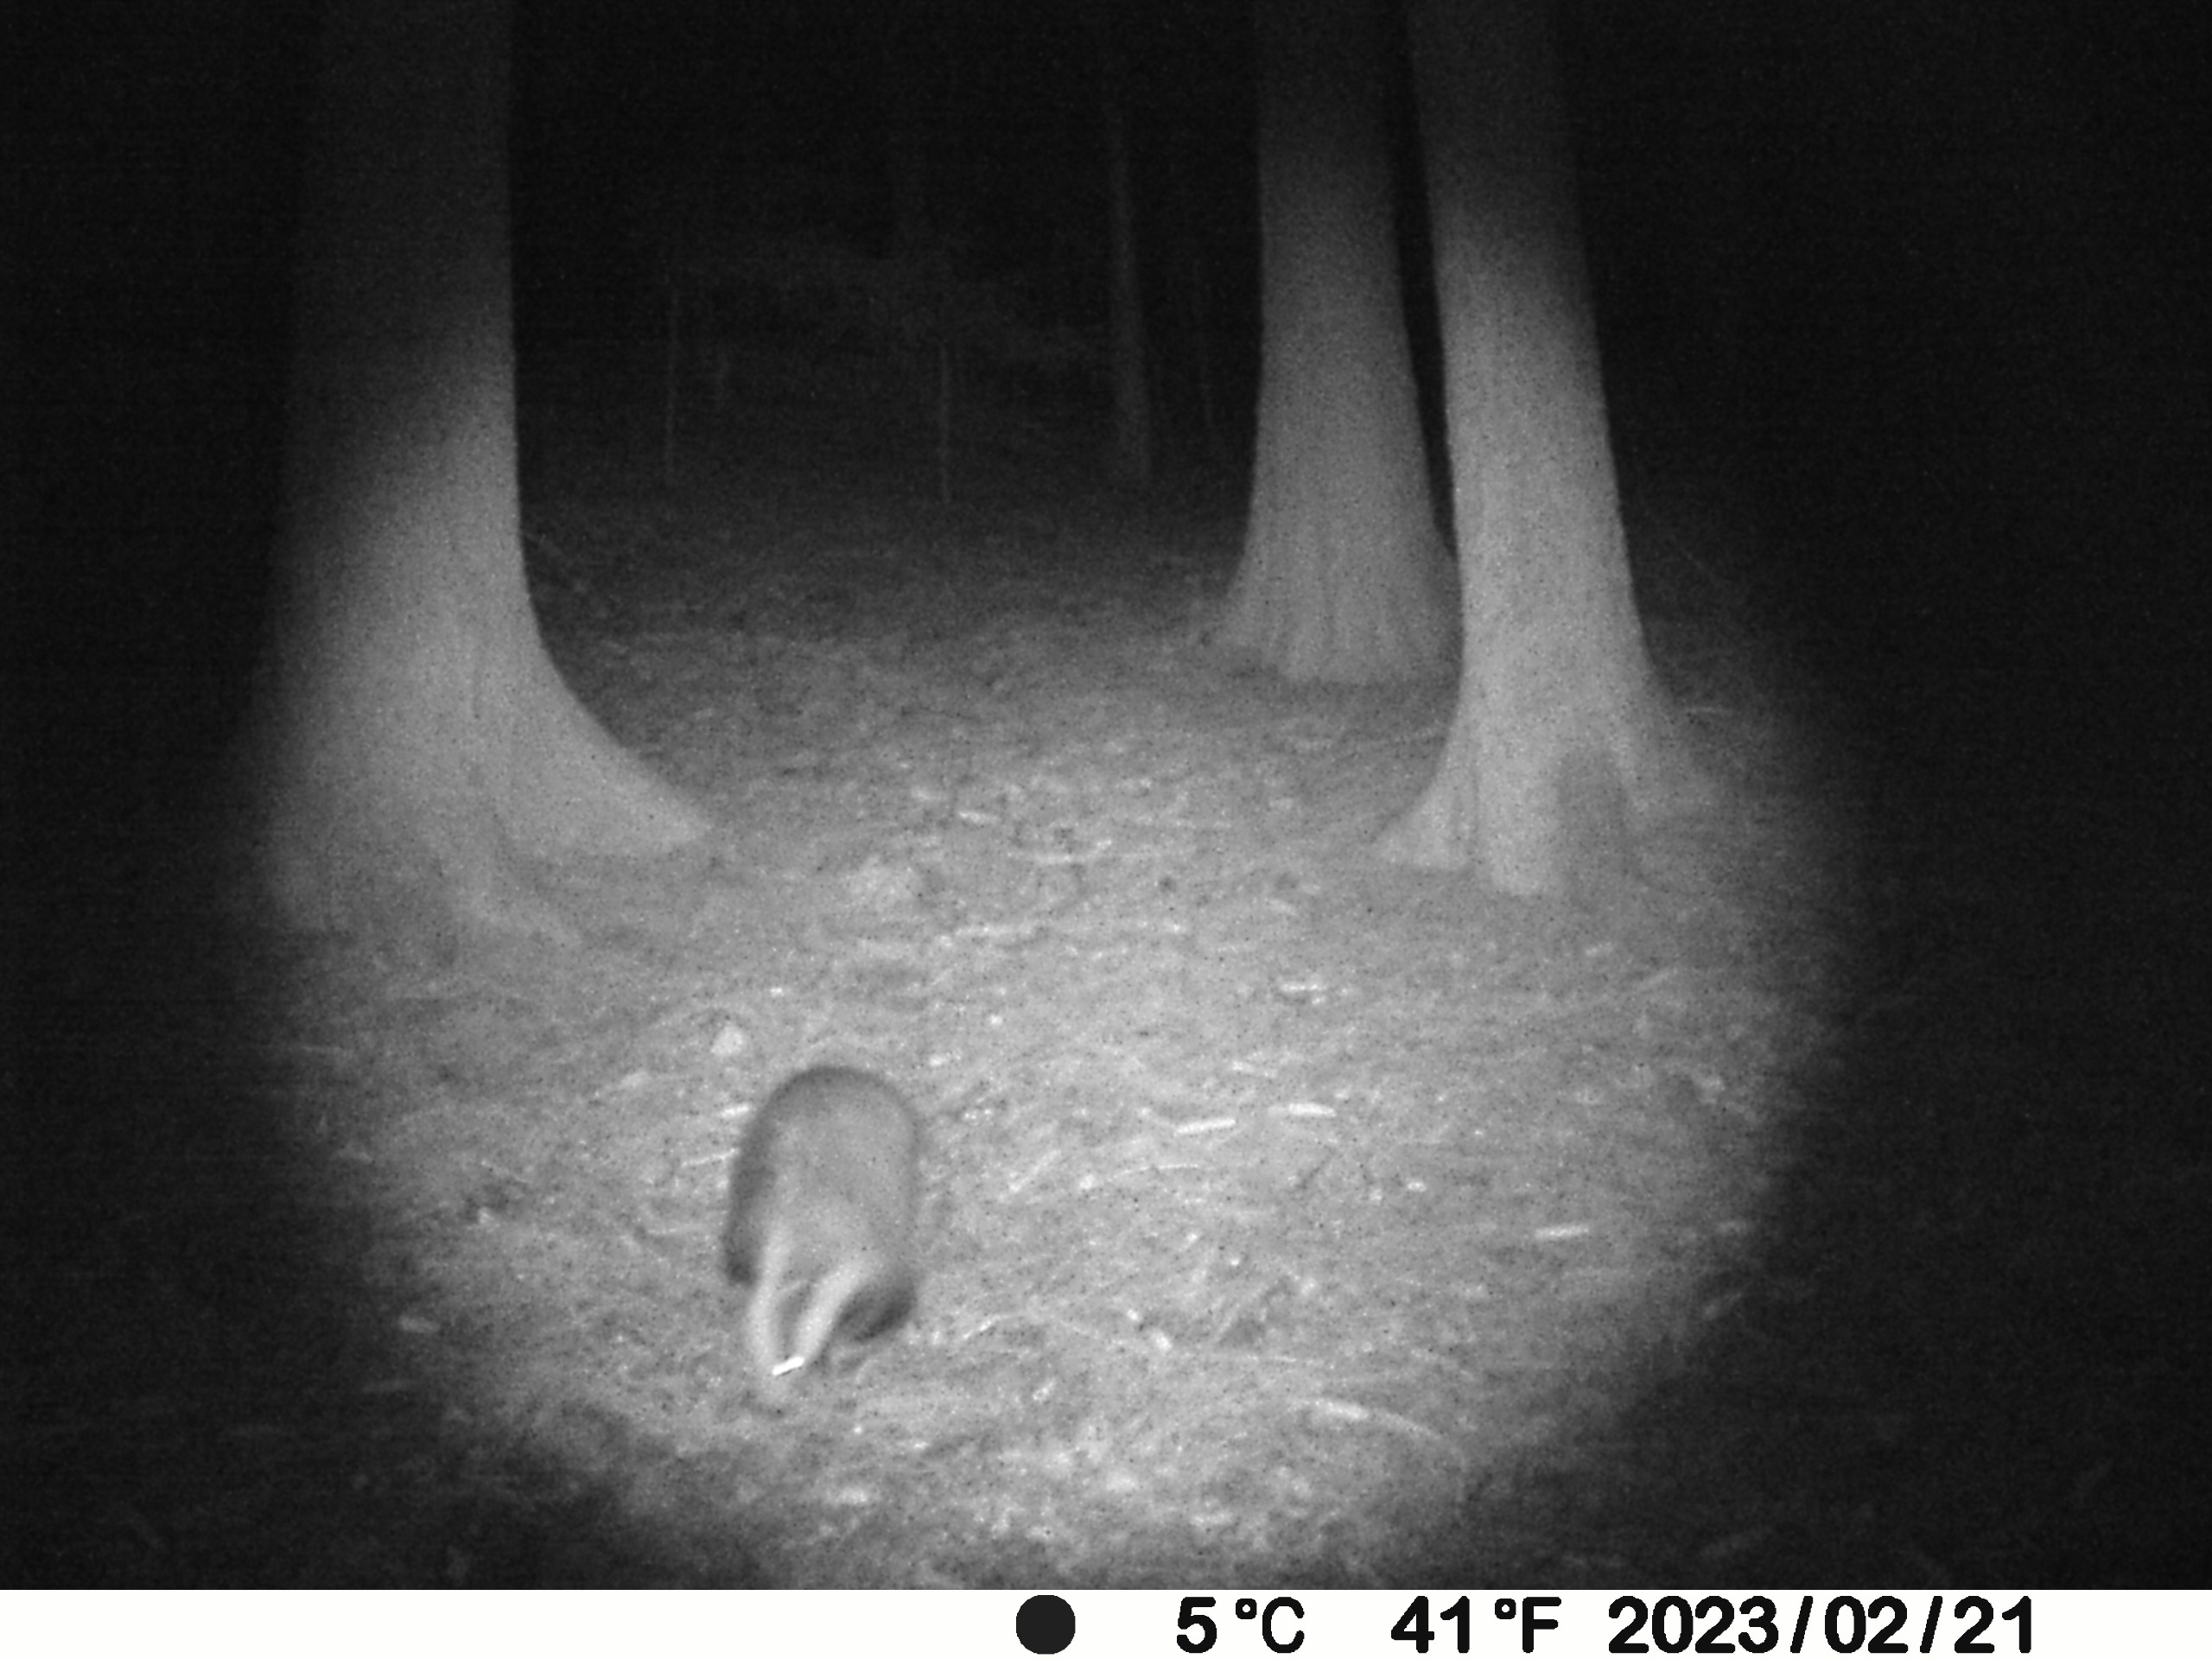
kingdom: Animalia
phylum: Chordata
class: Mammalia
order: Carnivora
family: Mustelidae
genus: Meles
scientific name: Meles meles
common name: Grævling
